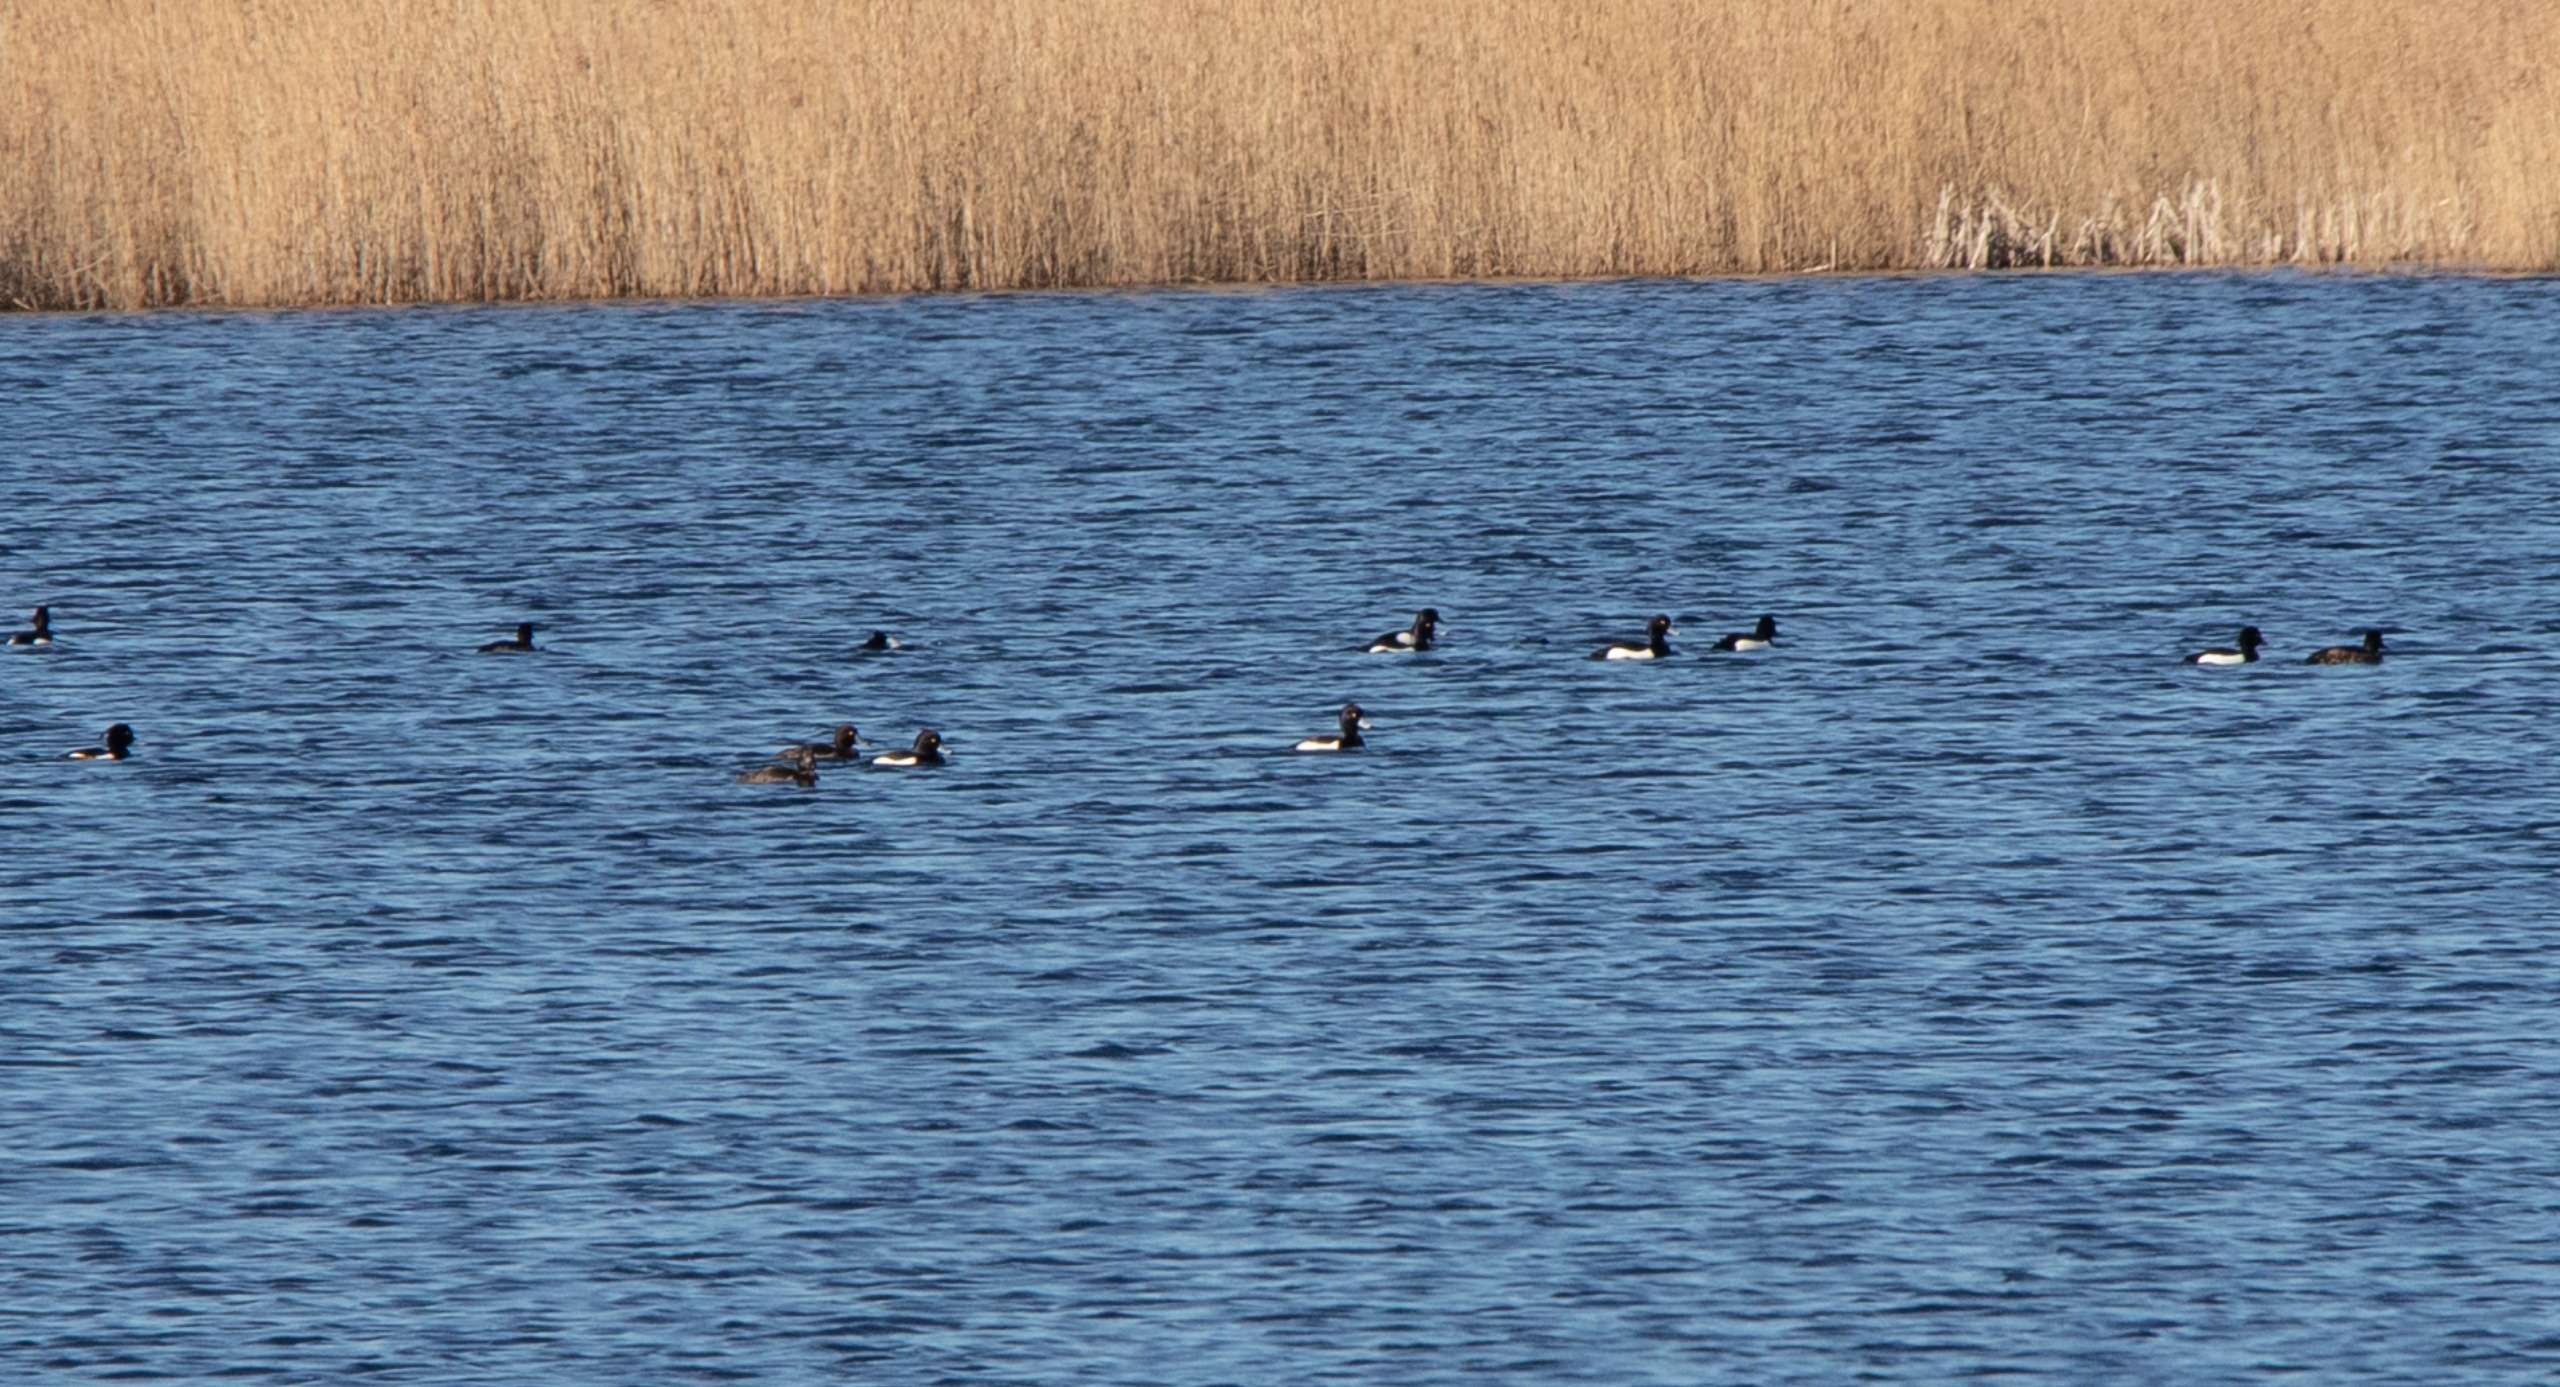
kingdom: Animalia
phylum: Chordata
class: Aves
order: Anseriformes
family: Anatidae
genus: Aythya
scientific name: Aythya fuligula
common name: Troldand
